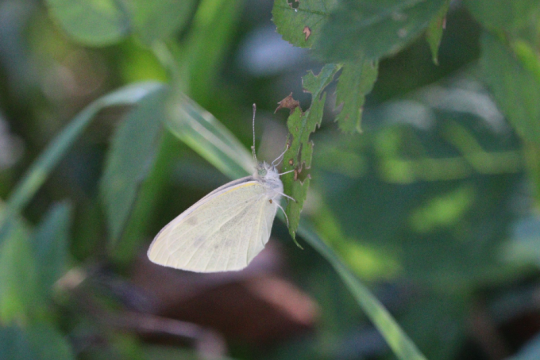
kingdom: Animalia
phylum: Arthropoda
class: Insecta
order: Lepidoptera
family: Pieridae
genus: Pieris
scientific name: Pieris rapae
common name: Cabbage White
